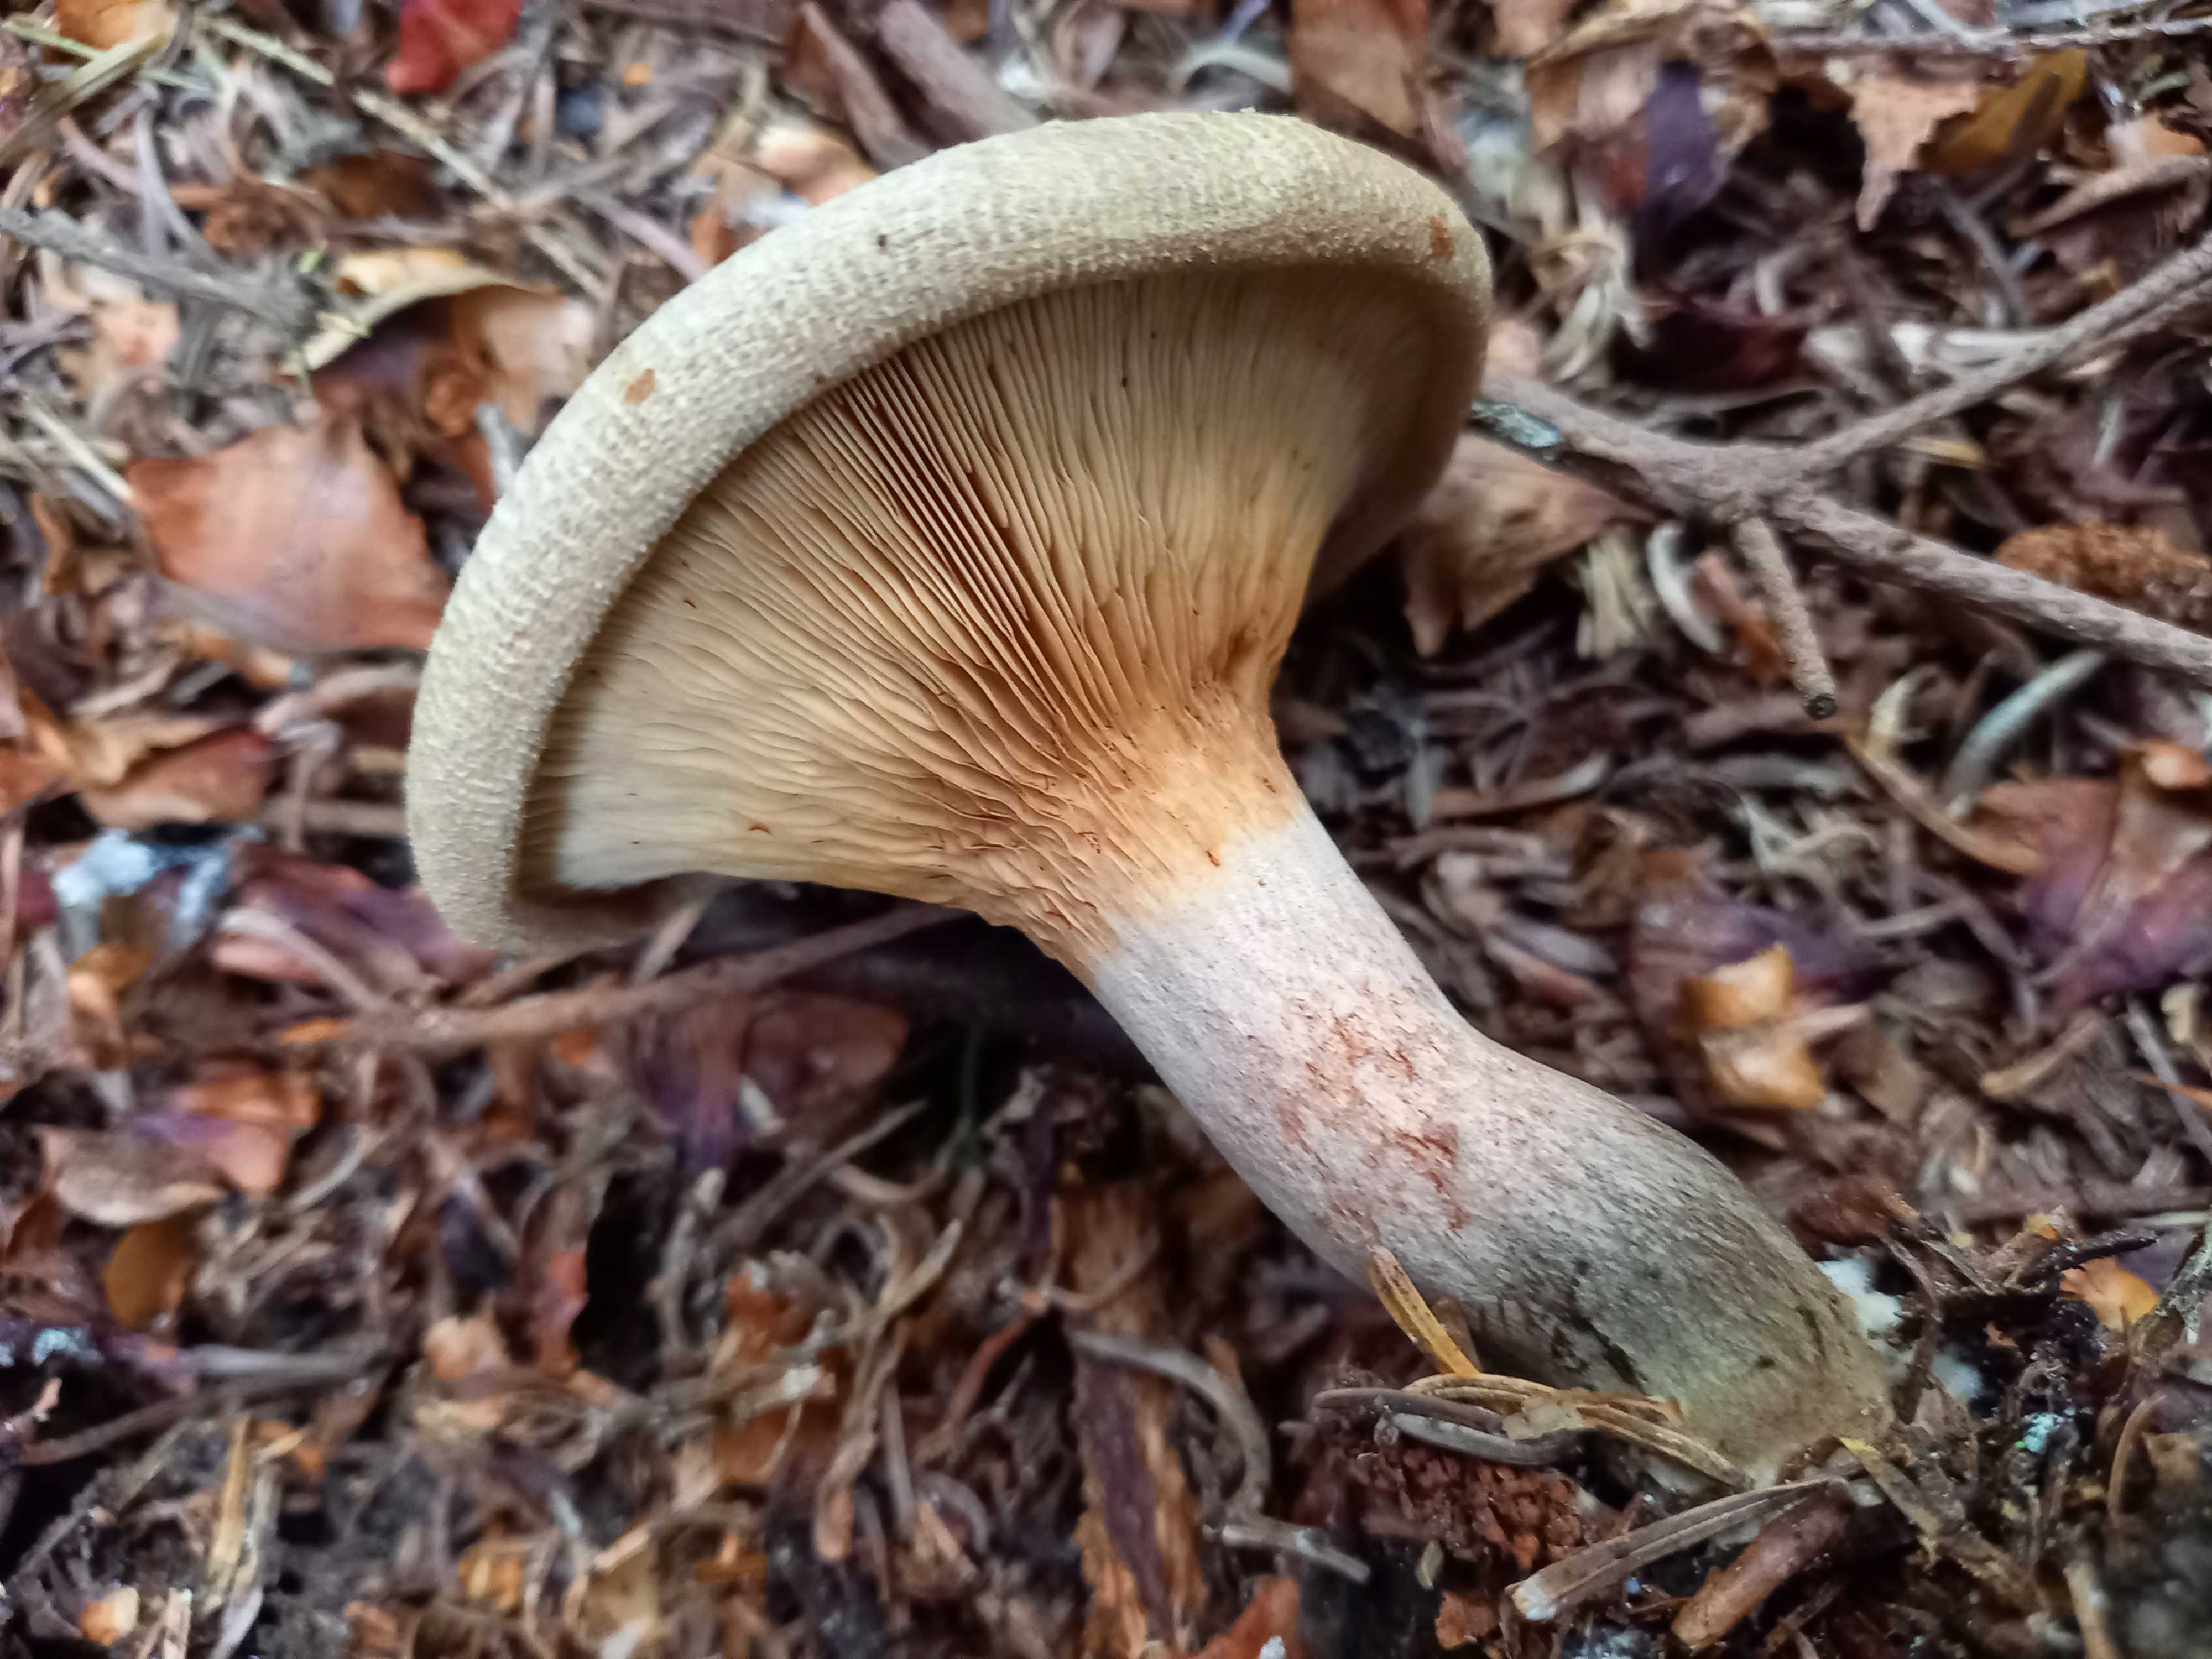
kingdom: Fungi
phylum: Basidiomycota
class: Agaricomycetes
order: Boletales
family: Paxillaceae
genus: Paxillus
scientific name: Paxillus involutus
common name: almindelig netbladhat
